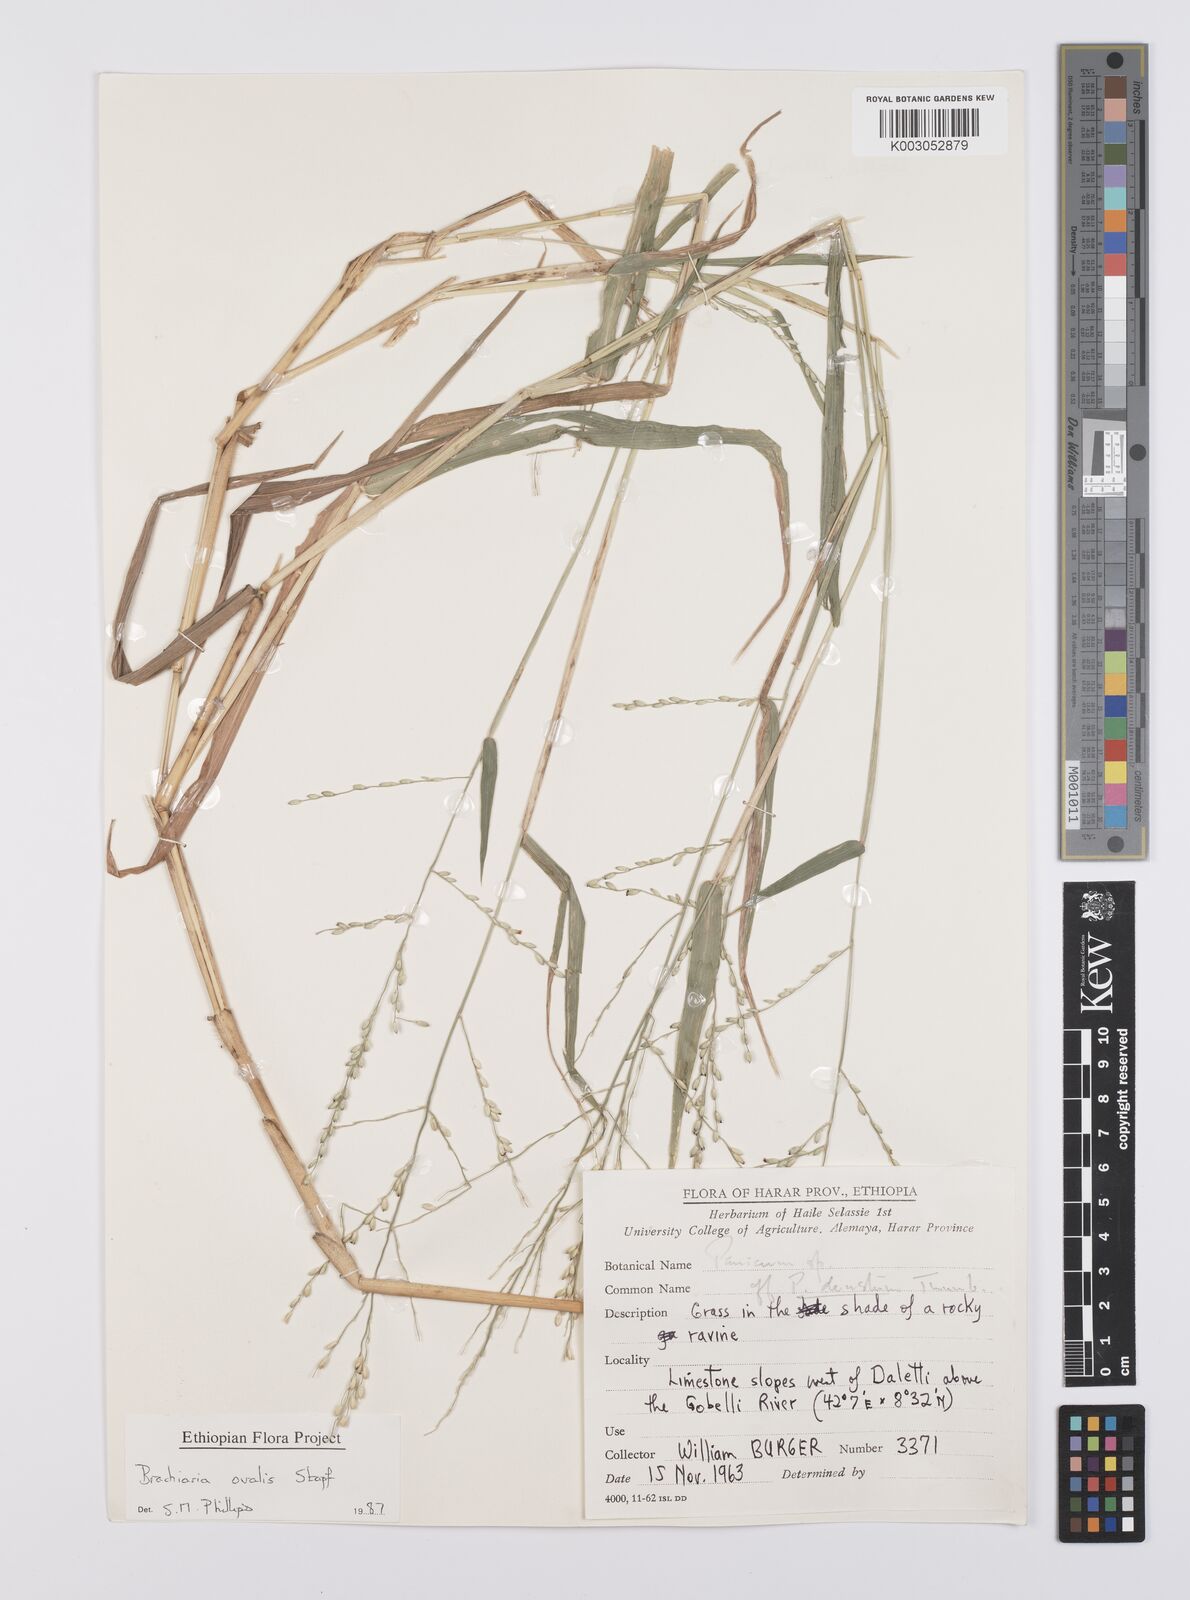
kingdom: Plantae
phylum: Tracheophyta
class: Liliopsida
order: Poales
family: Poaceae
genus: Urochloa
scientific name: Urochloa ovalis
